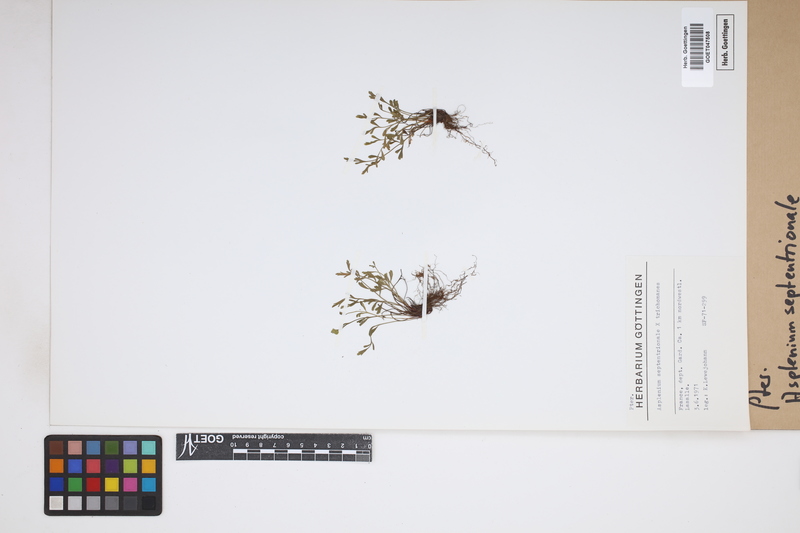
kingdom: Plantae
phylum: Tracheophyta
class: Polypodiopsida
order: Polypodiales
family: Aspleniaceae
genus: Asplenium
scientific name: Asplenium
